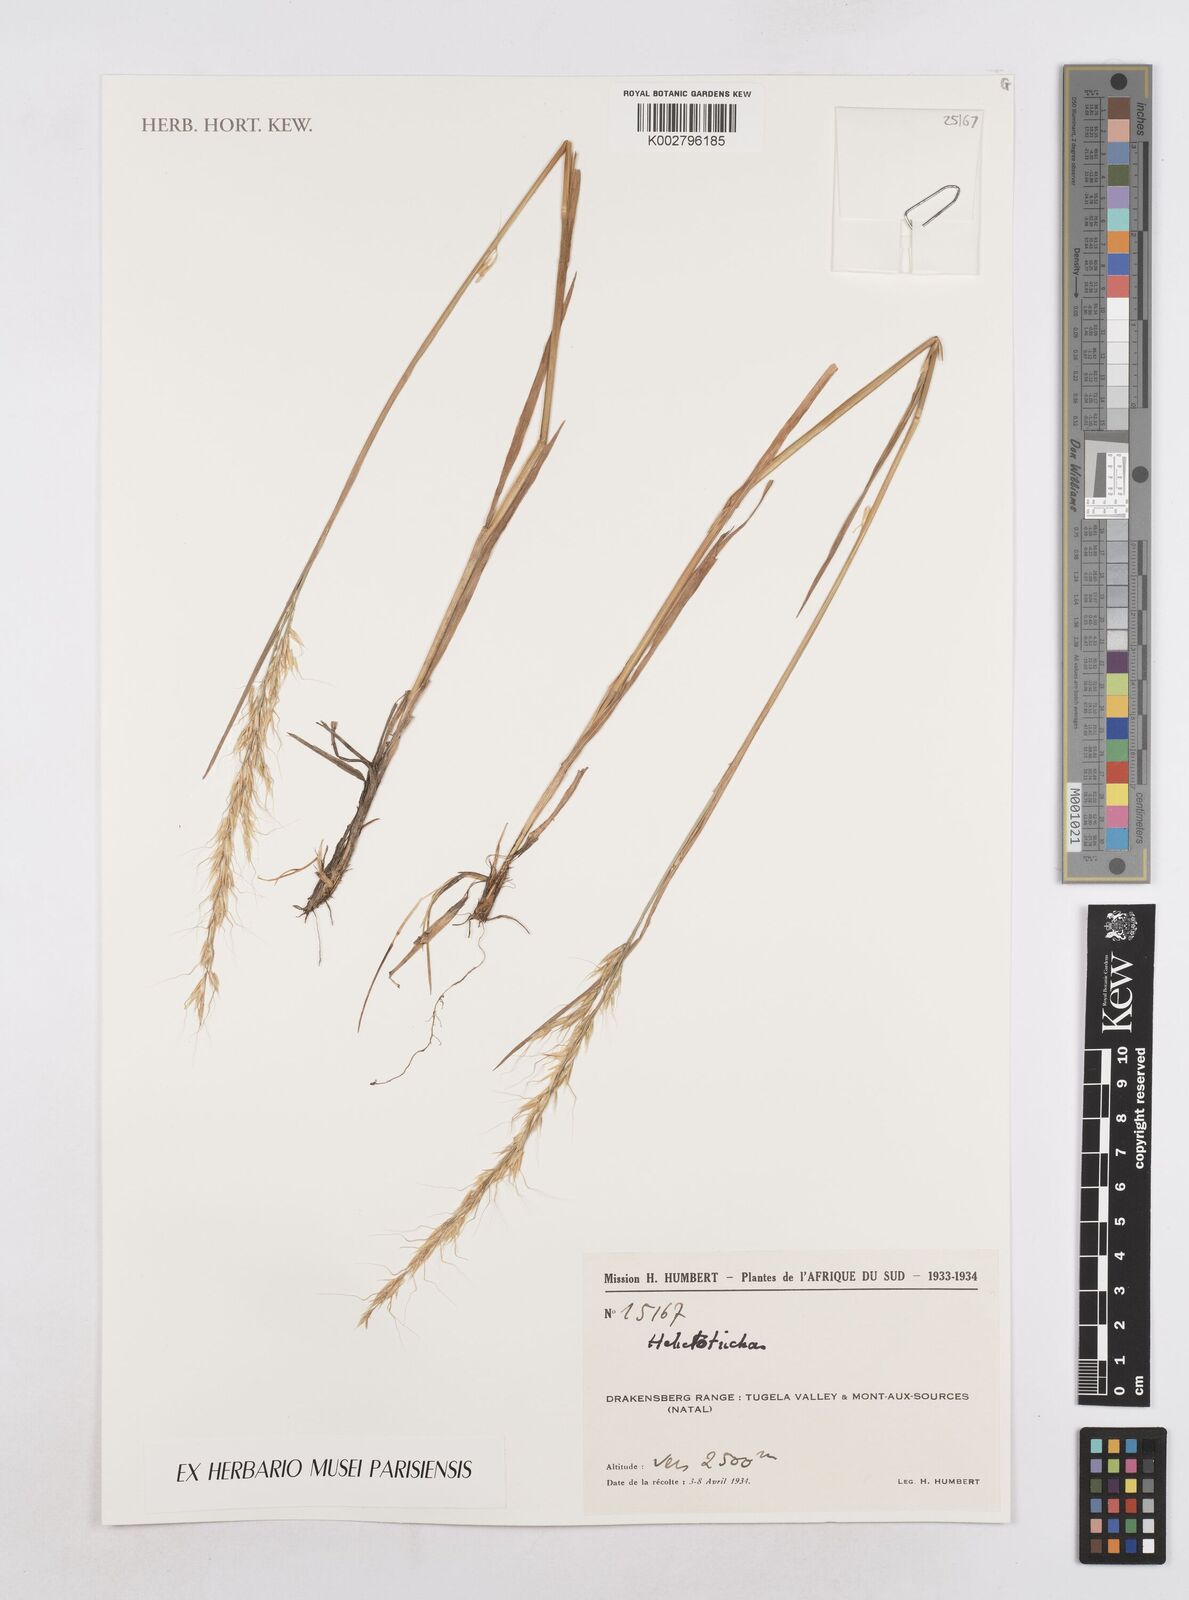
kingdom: Plantae
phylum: Tracheophyta
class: Liliopsida
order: Poales
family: Poaceae
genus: Helictotrichon
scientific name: Helictotrichon
